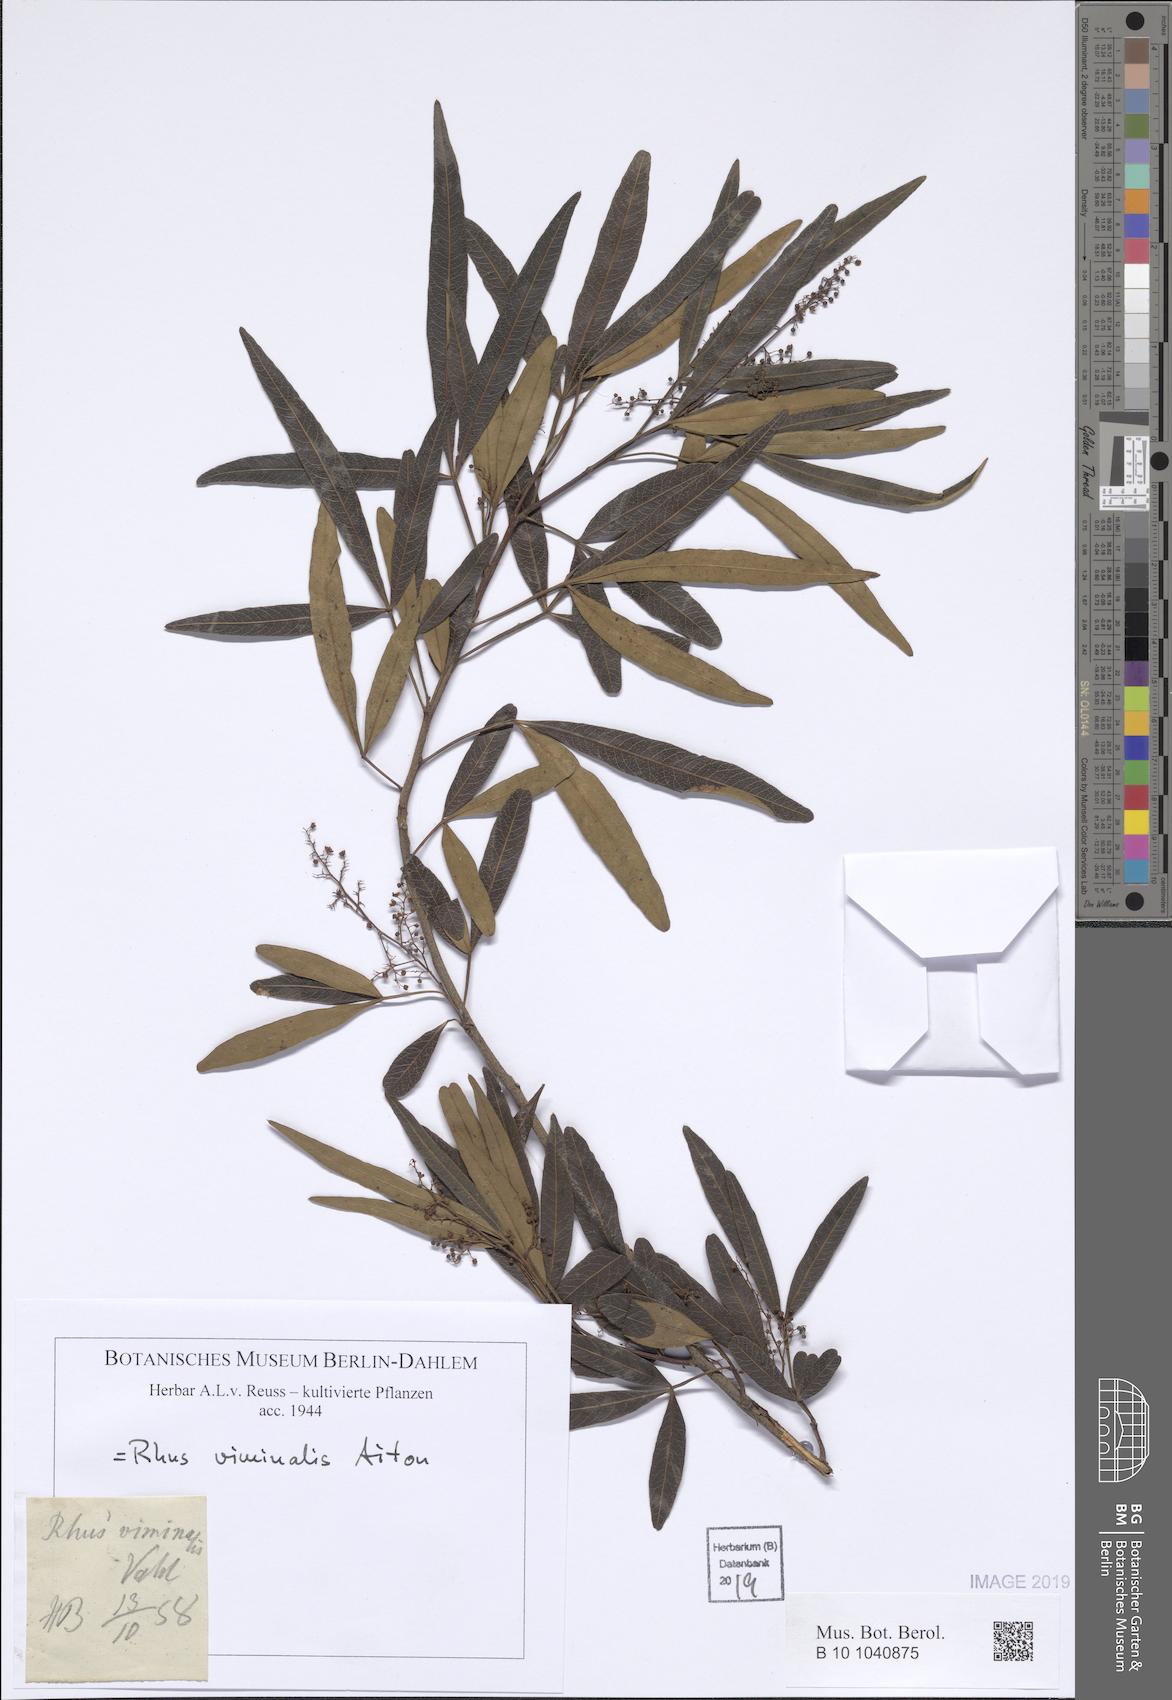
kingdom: Plantae
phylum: Tracheophyta
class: Magnoliopsida
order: Sapindales
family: Anacardiaceae
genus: Searsia
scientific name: Searsia gerrardii
